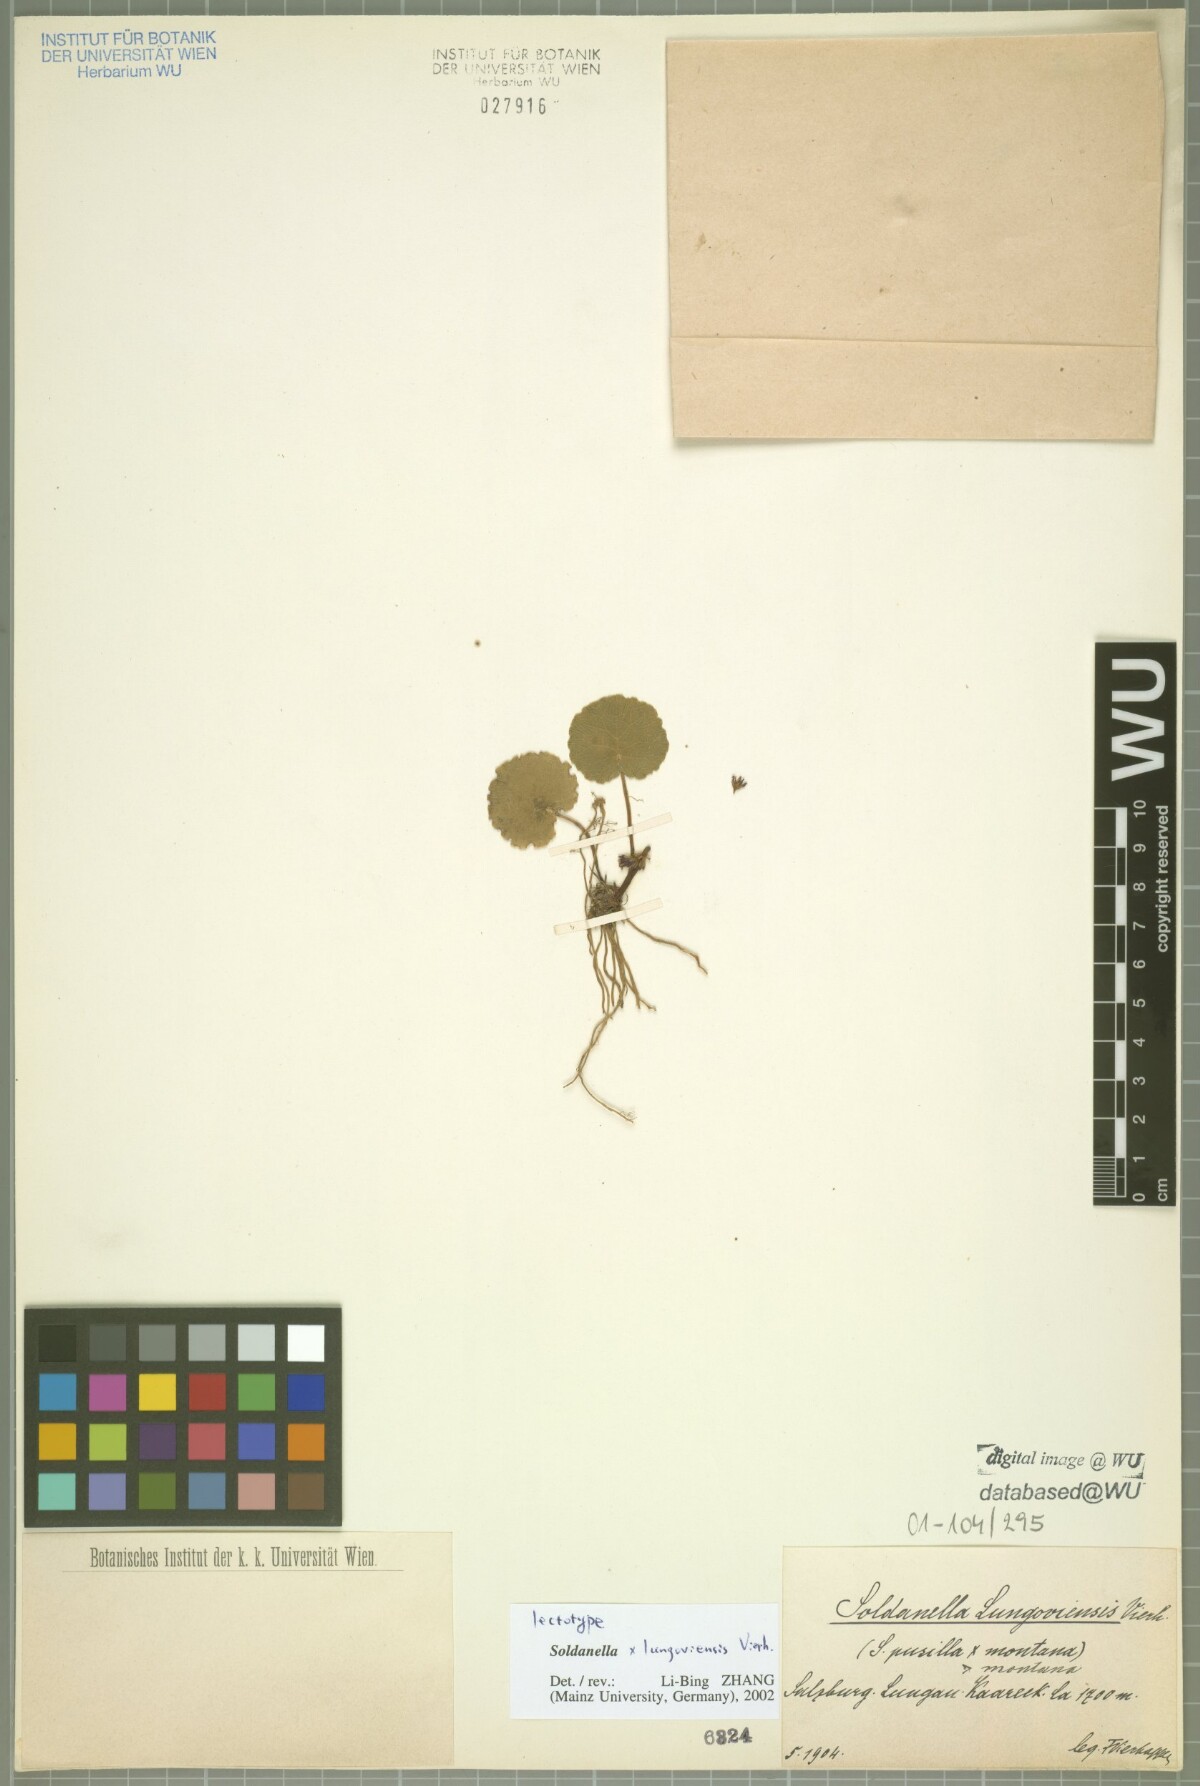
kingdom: Plantae
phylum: Tracheophyta
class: Magnoliopsida
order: Ericales
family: Primulaceae
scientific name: Primulaceae
